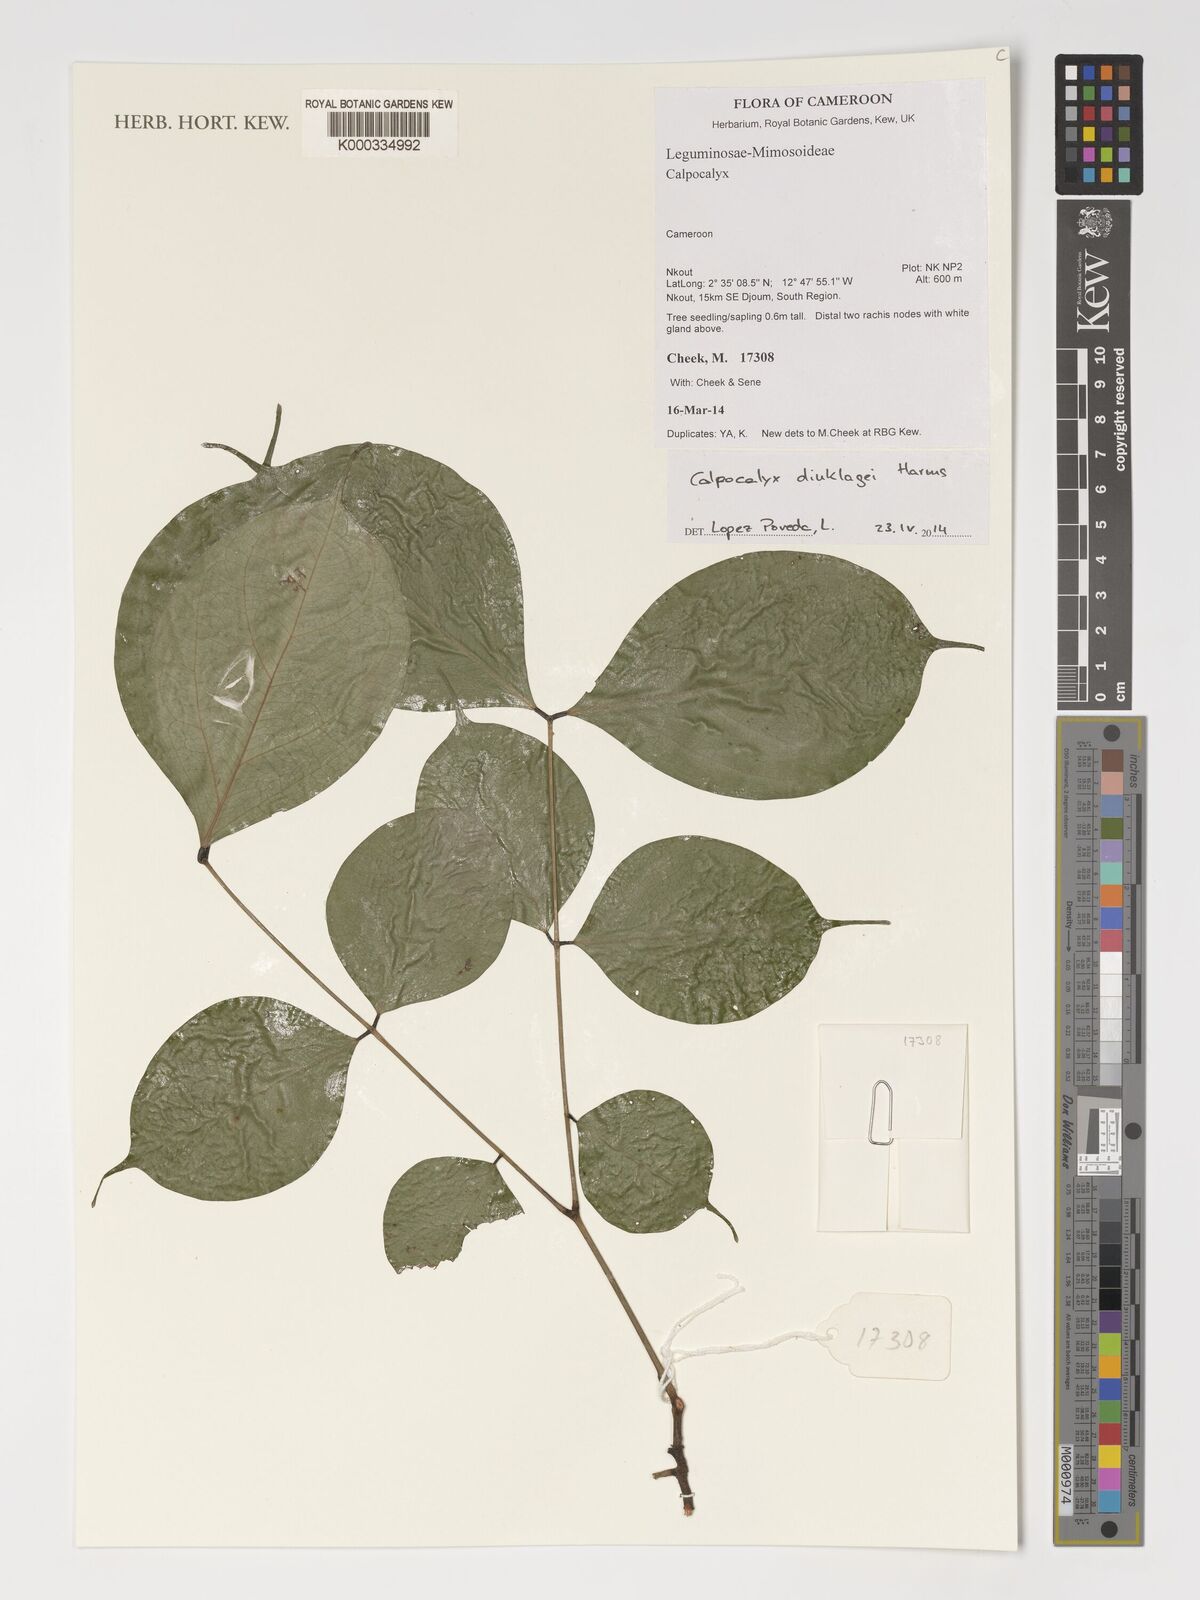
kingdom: Plantae
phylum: Tracheophyta
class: Magnoliopsida
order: Fabales
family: Fabaceae
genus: Calpocalyx
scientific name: Calpocalyx dinklagei
